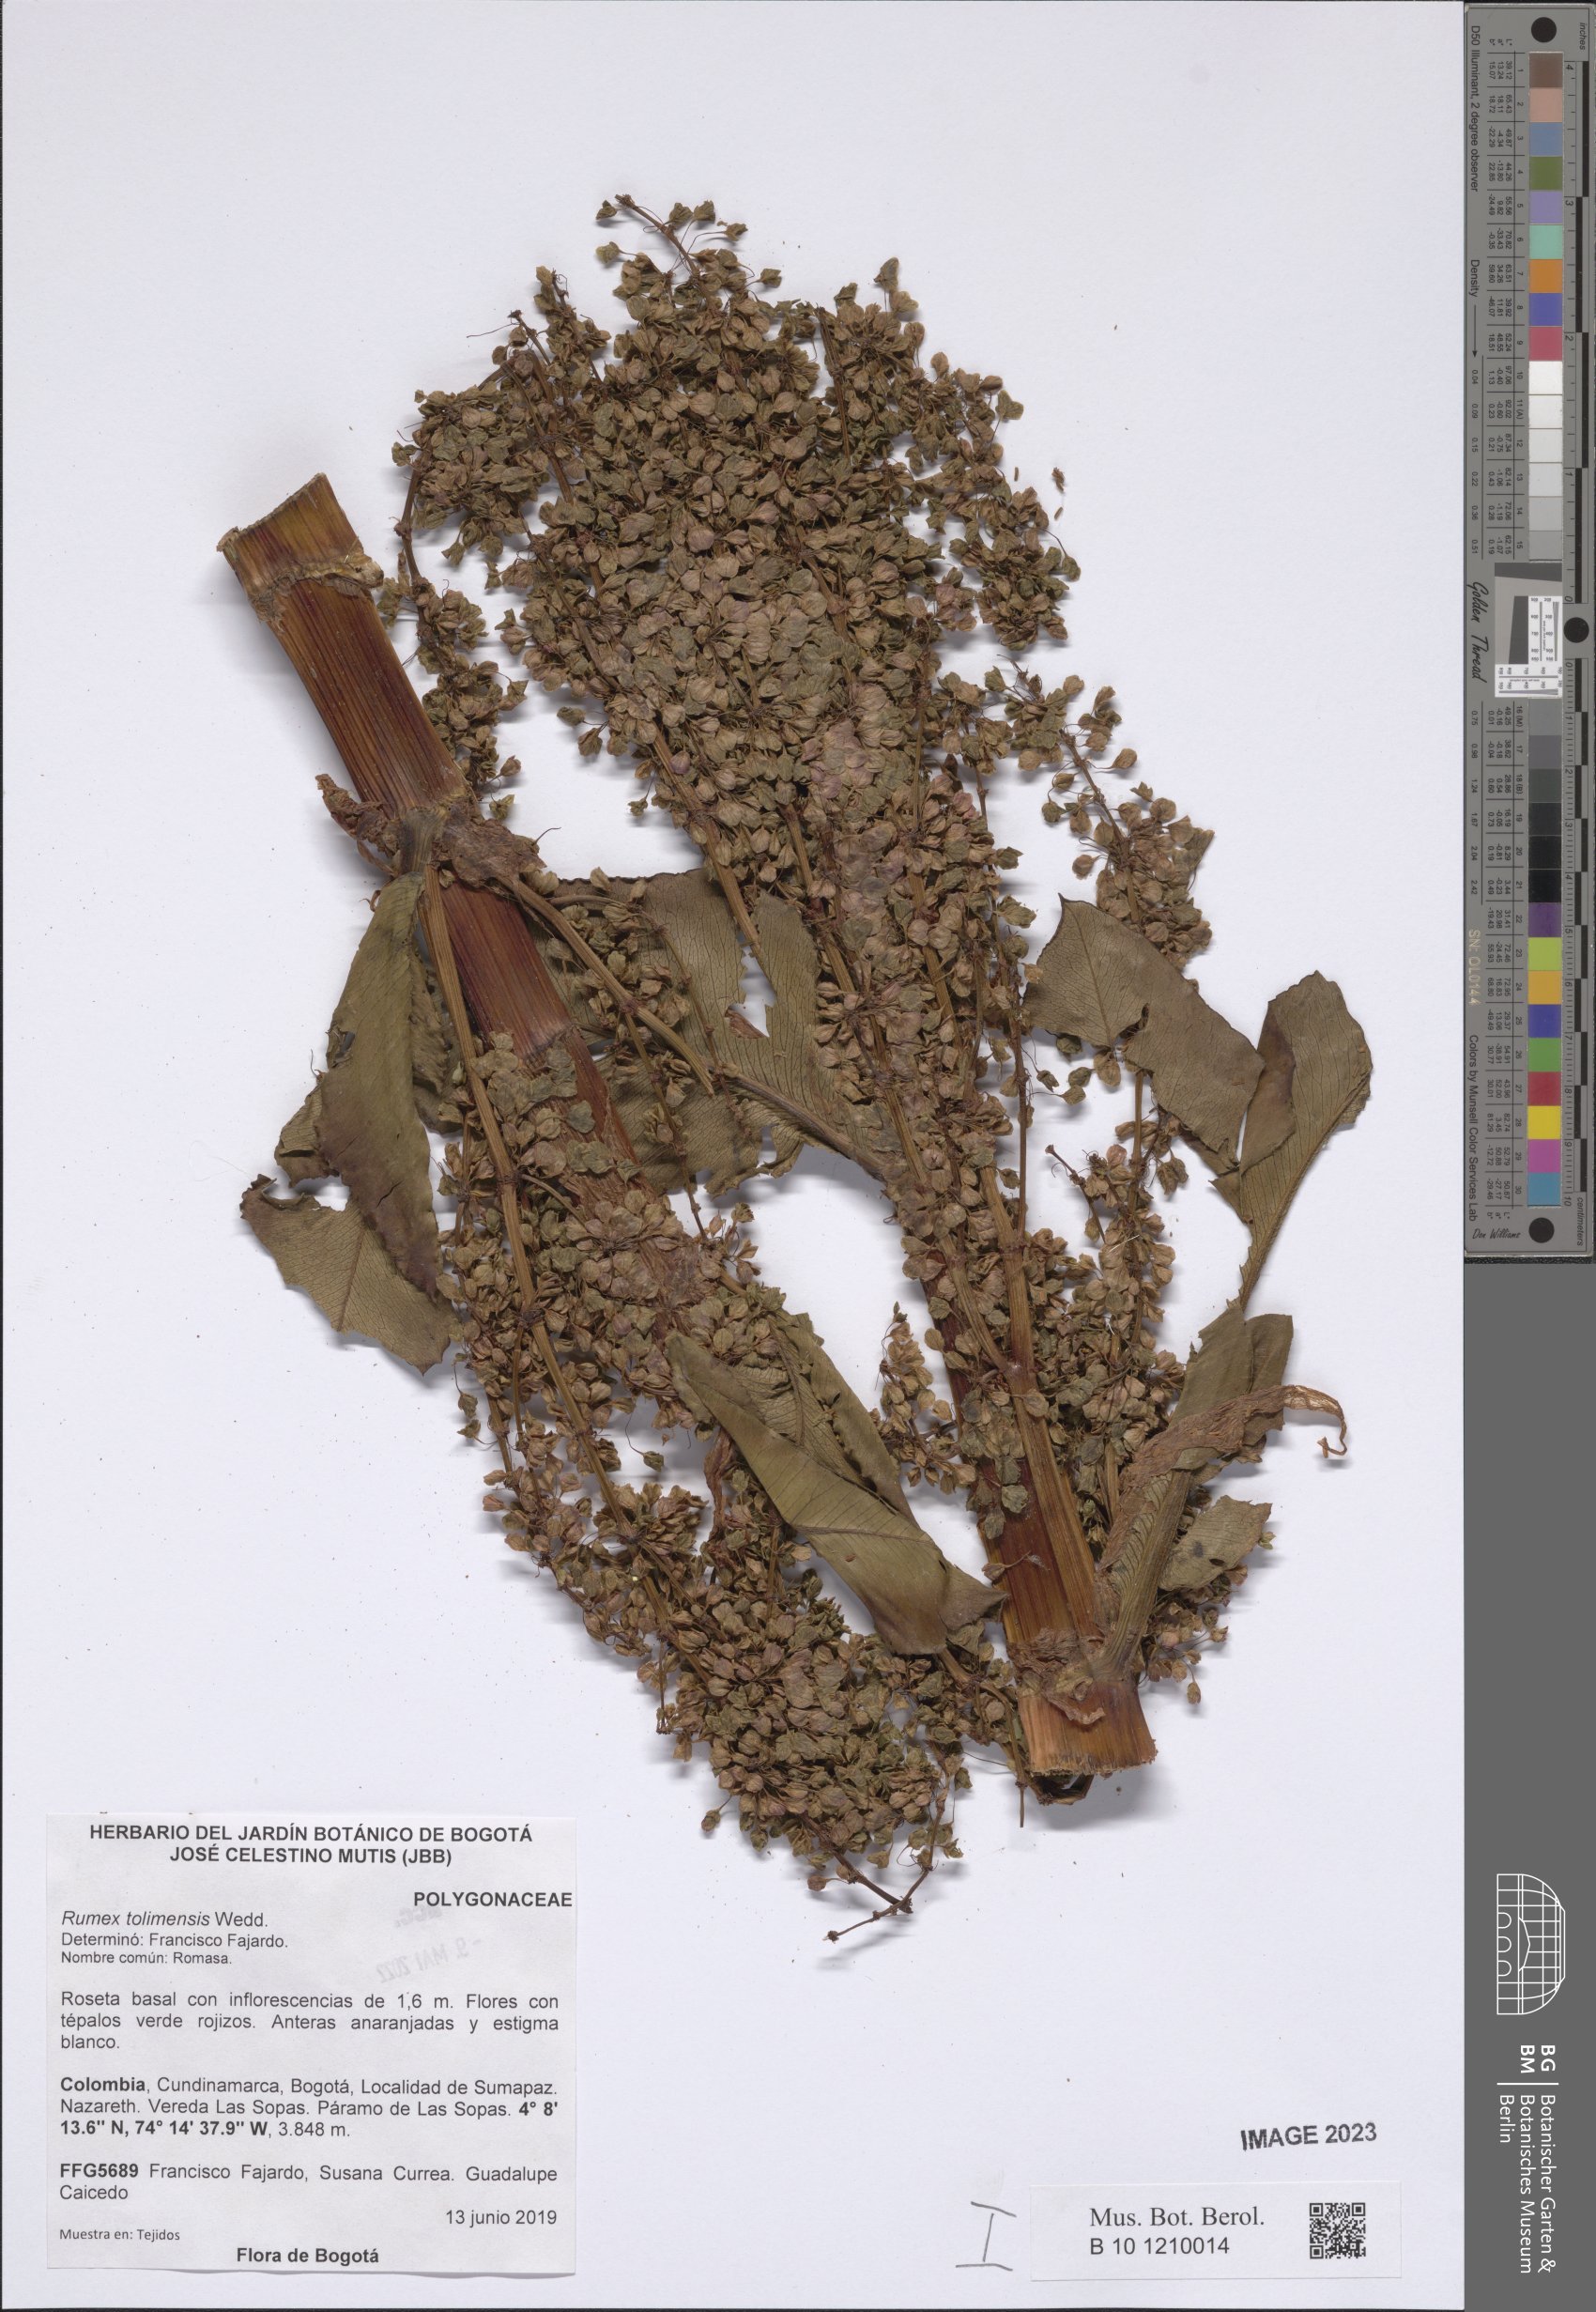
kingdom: Plantae
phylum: Tracheophyta
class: Magnoliopsida
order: Caryophyllales
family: Polygonaceae
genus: Rumex
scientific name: Rumex tolimensis
